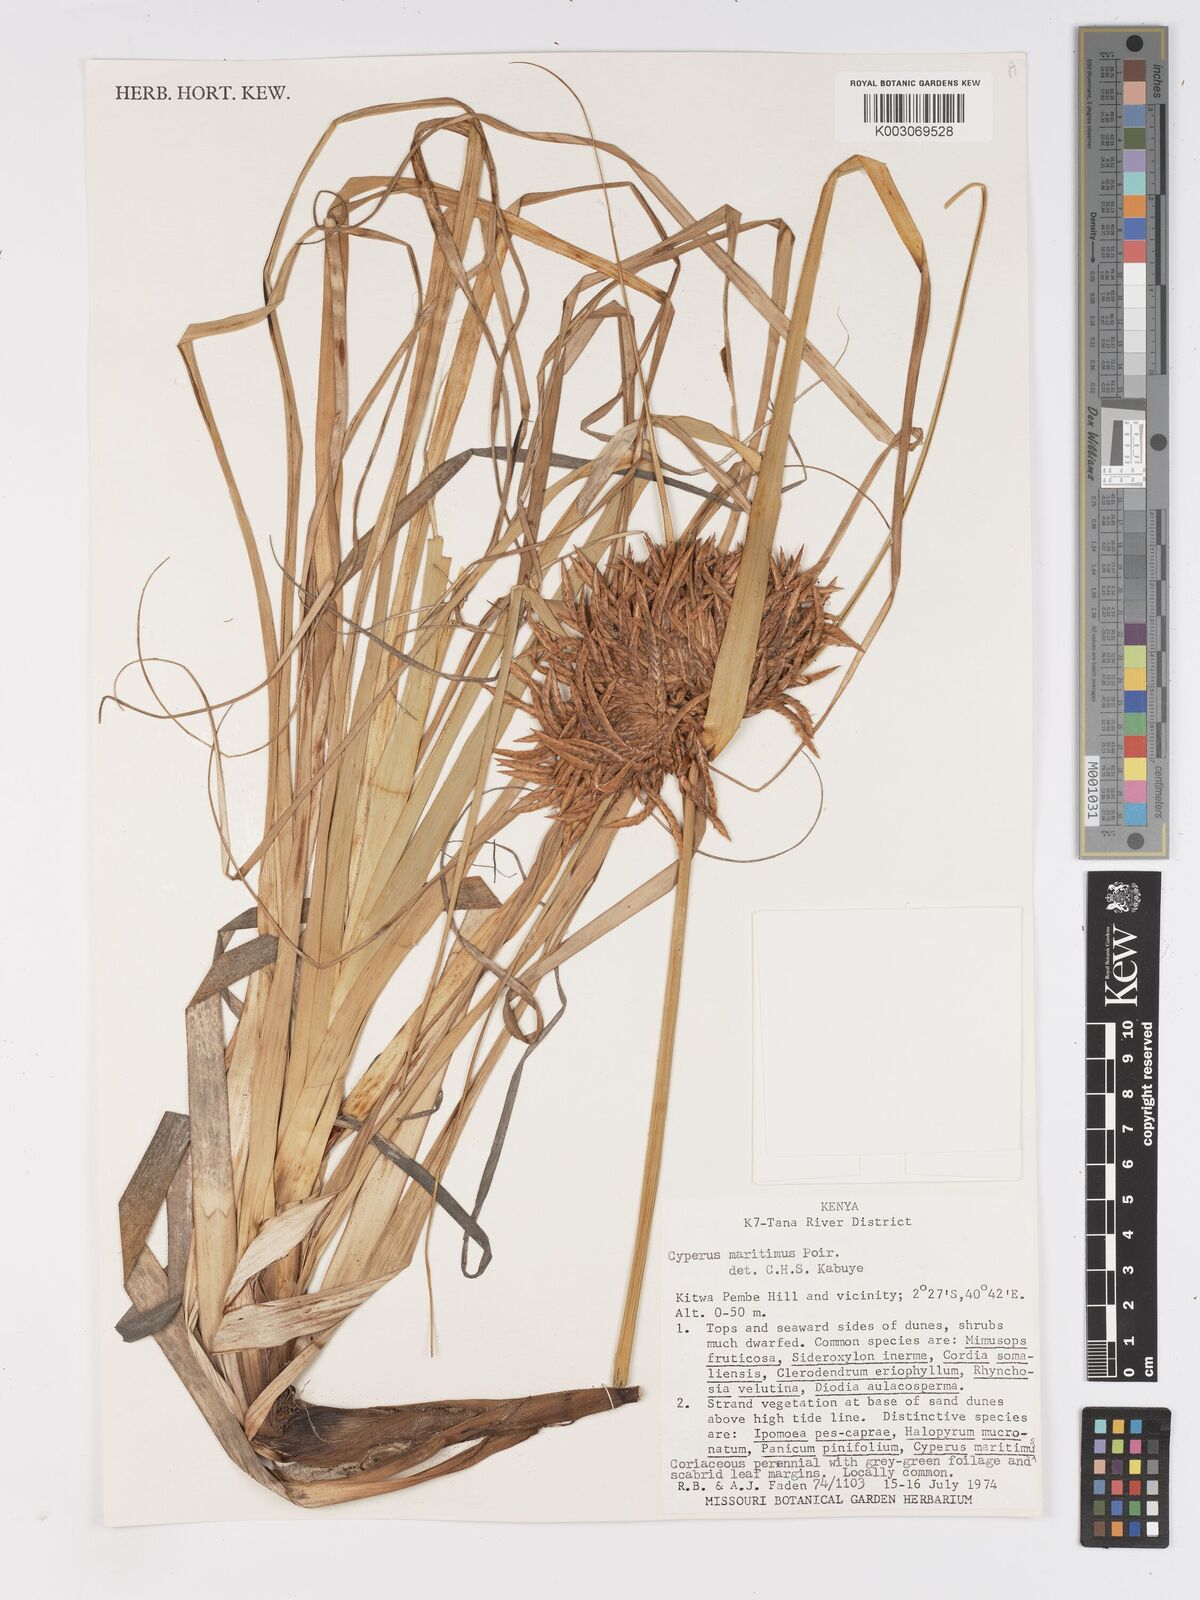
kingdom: Plantae
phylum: Tracheophyta
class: Liliopsida
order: Poales
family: Cyperaceae
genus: Cyperus
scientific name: Cyperus crassipes
